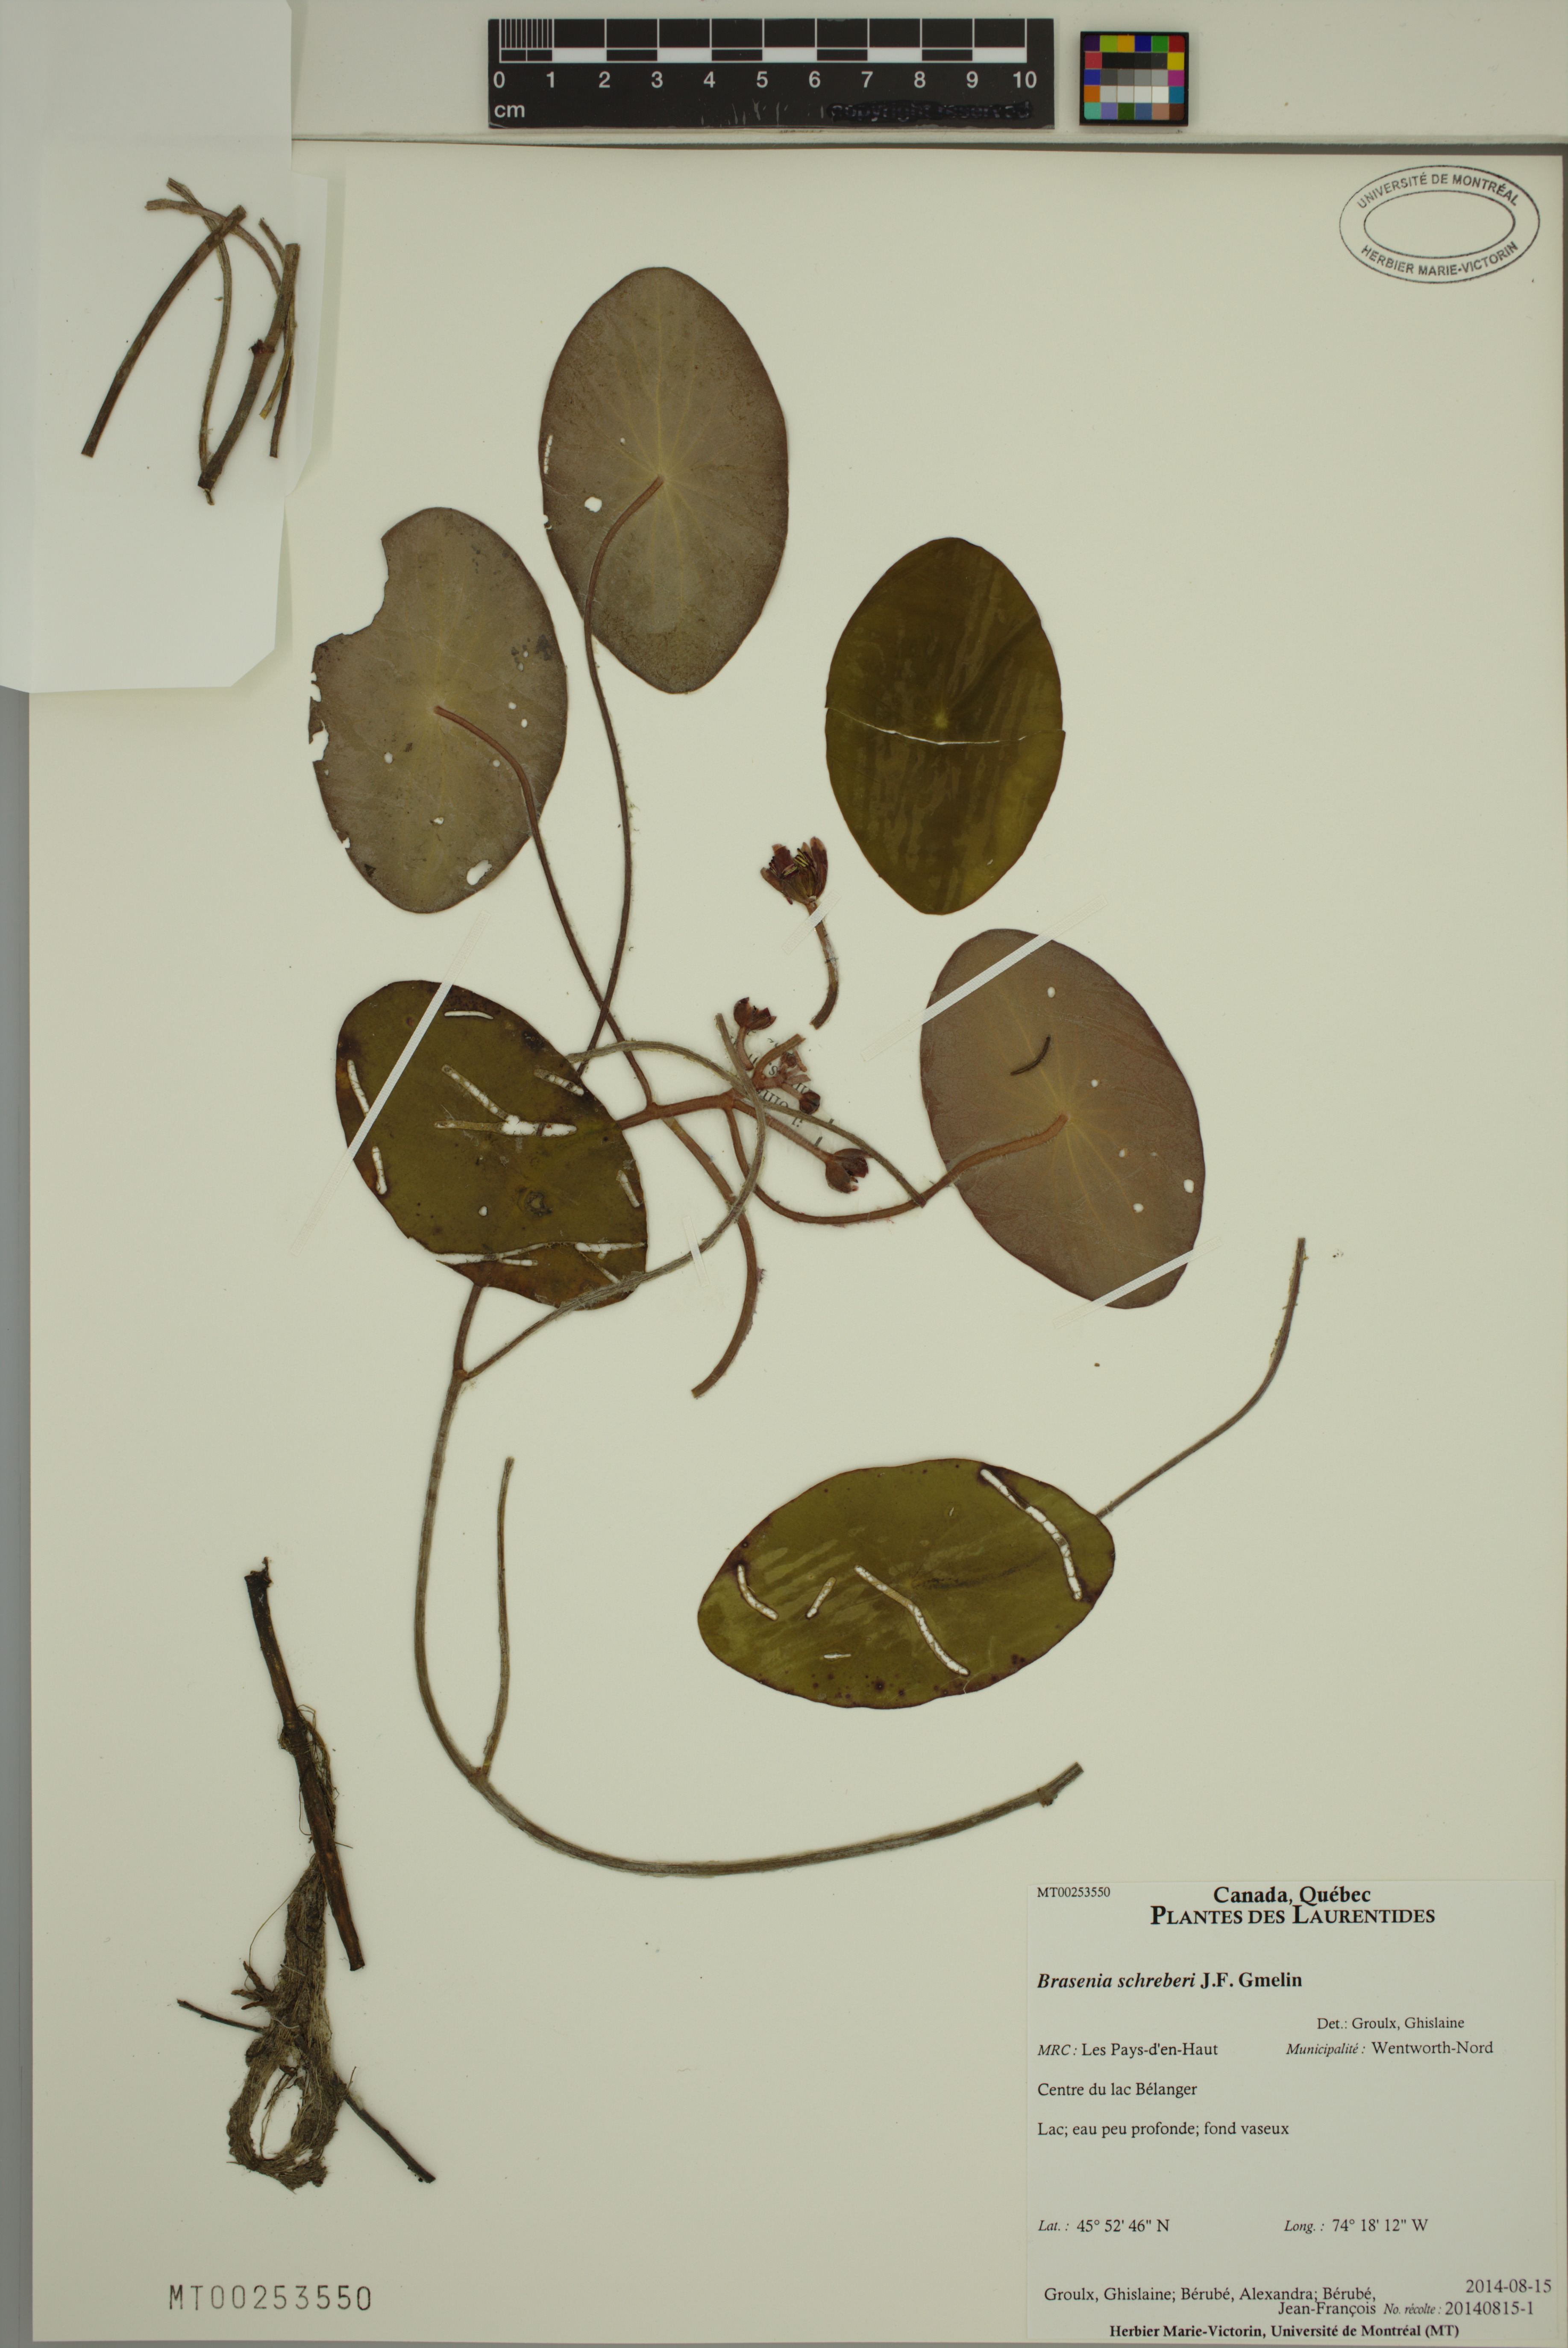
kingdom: Plantae
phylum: Tracheophyta
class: Magnoliopsida
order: Nymphaeales
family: Cabombaceae
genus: Brasenia
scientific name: Brasenia schreberi
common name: Water-shield
